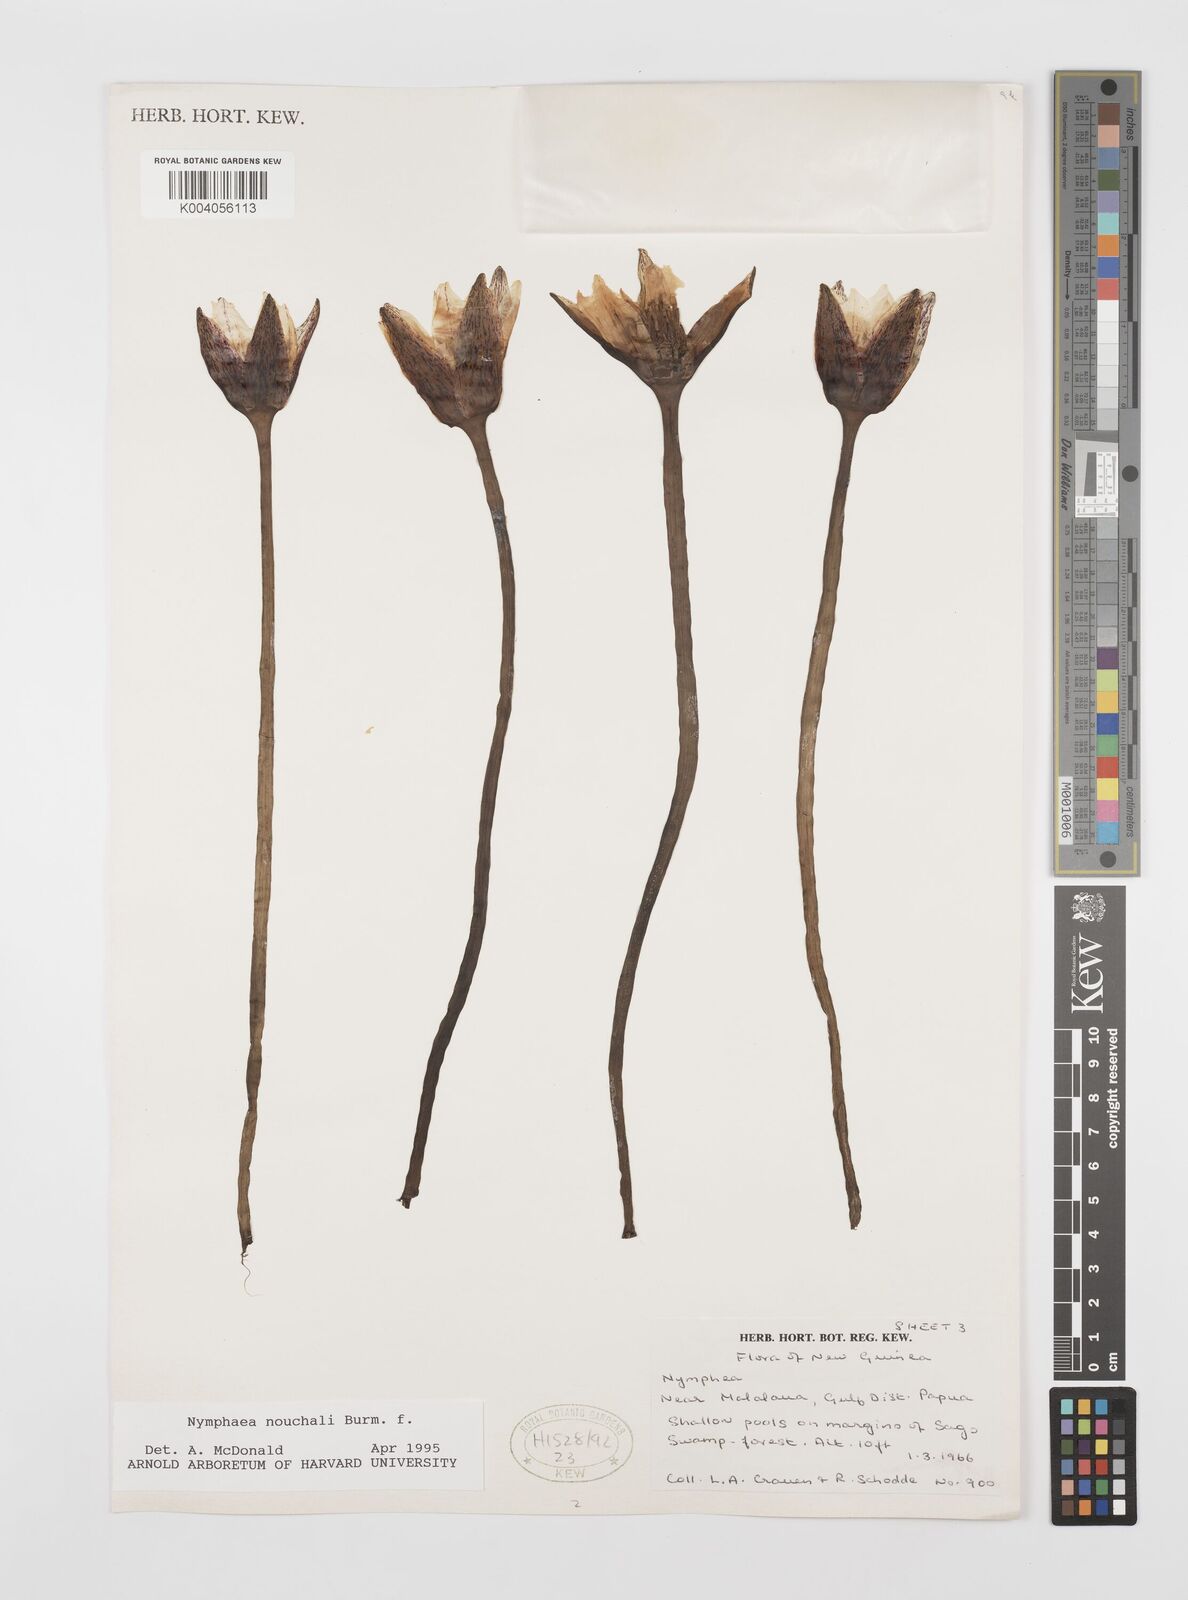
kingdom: Plantae
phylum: Tracheophyta
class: Magnoliopsida
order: Nymphaeales
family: Nymphaeaceae
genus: Nymphaea
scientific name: Nymphaea nouchali
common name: Blue lotus
